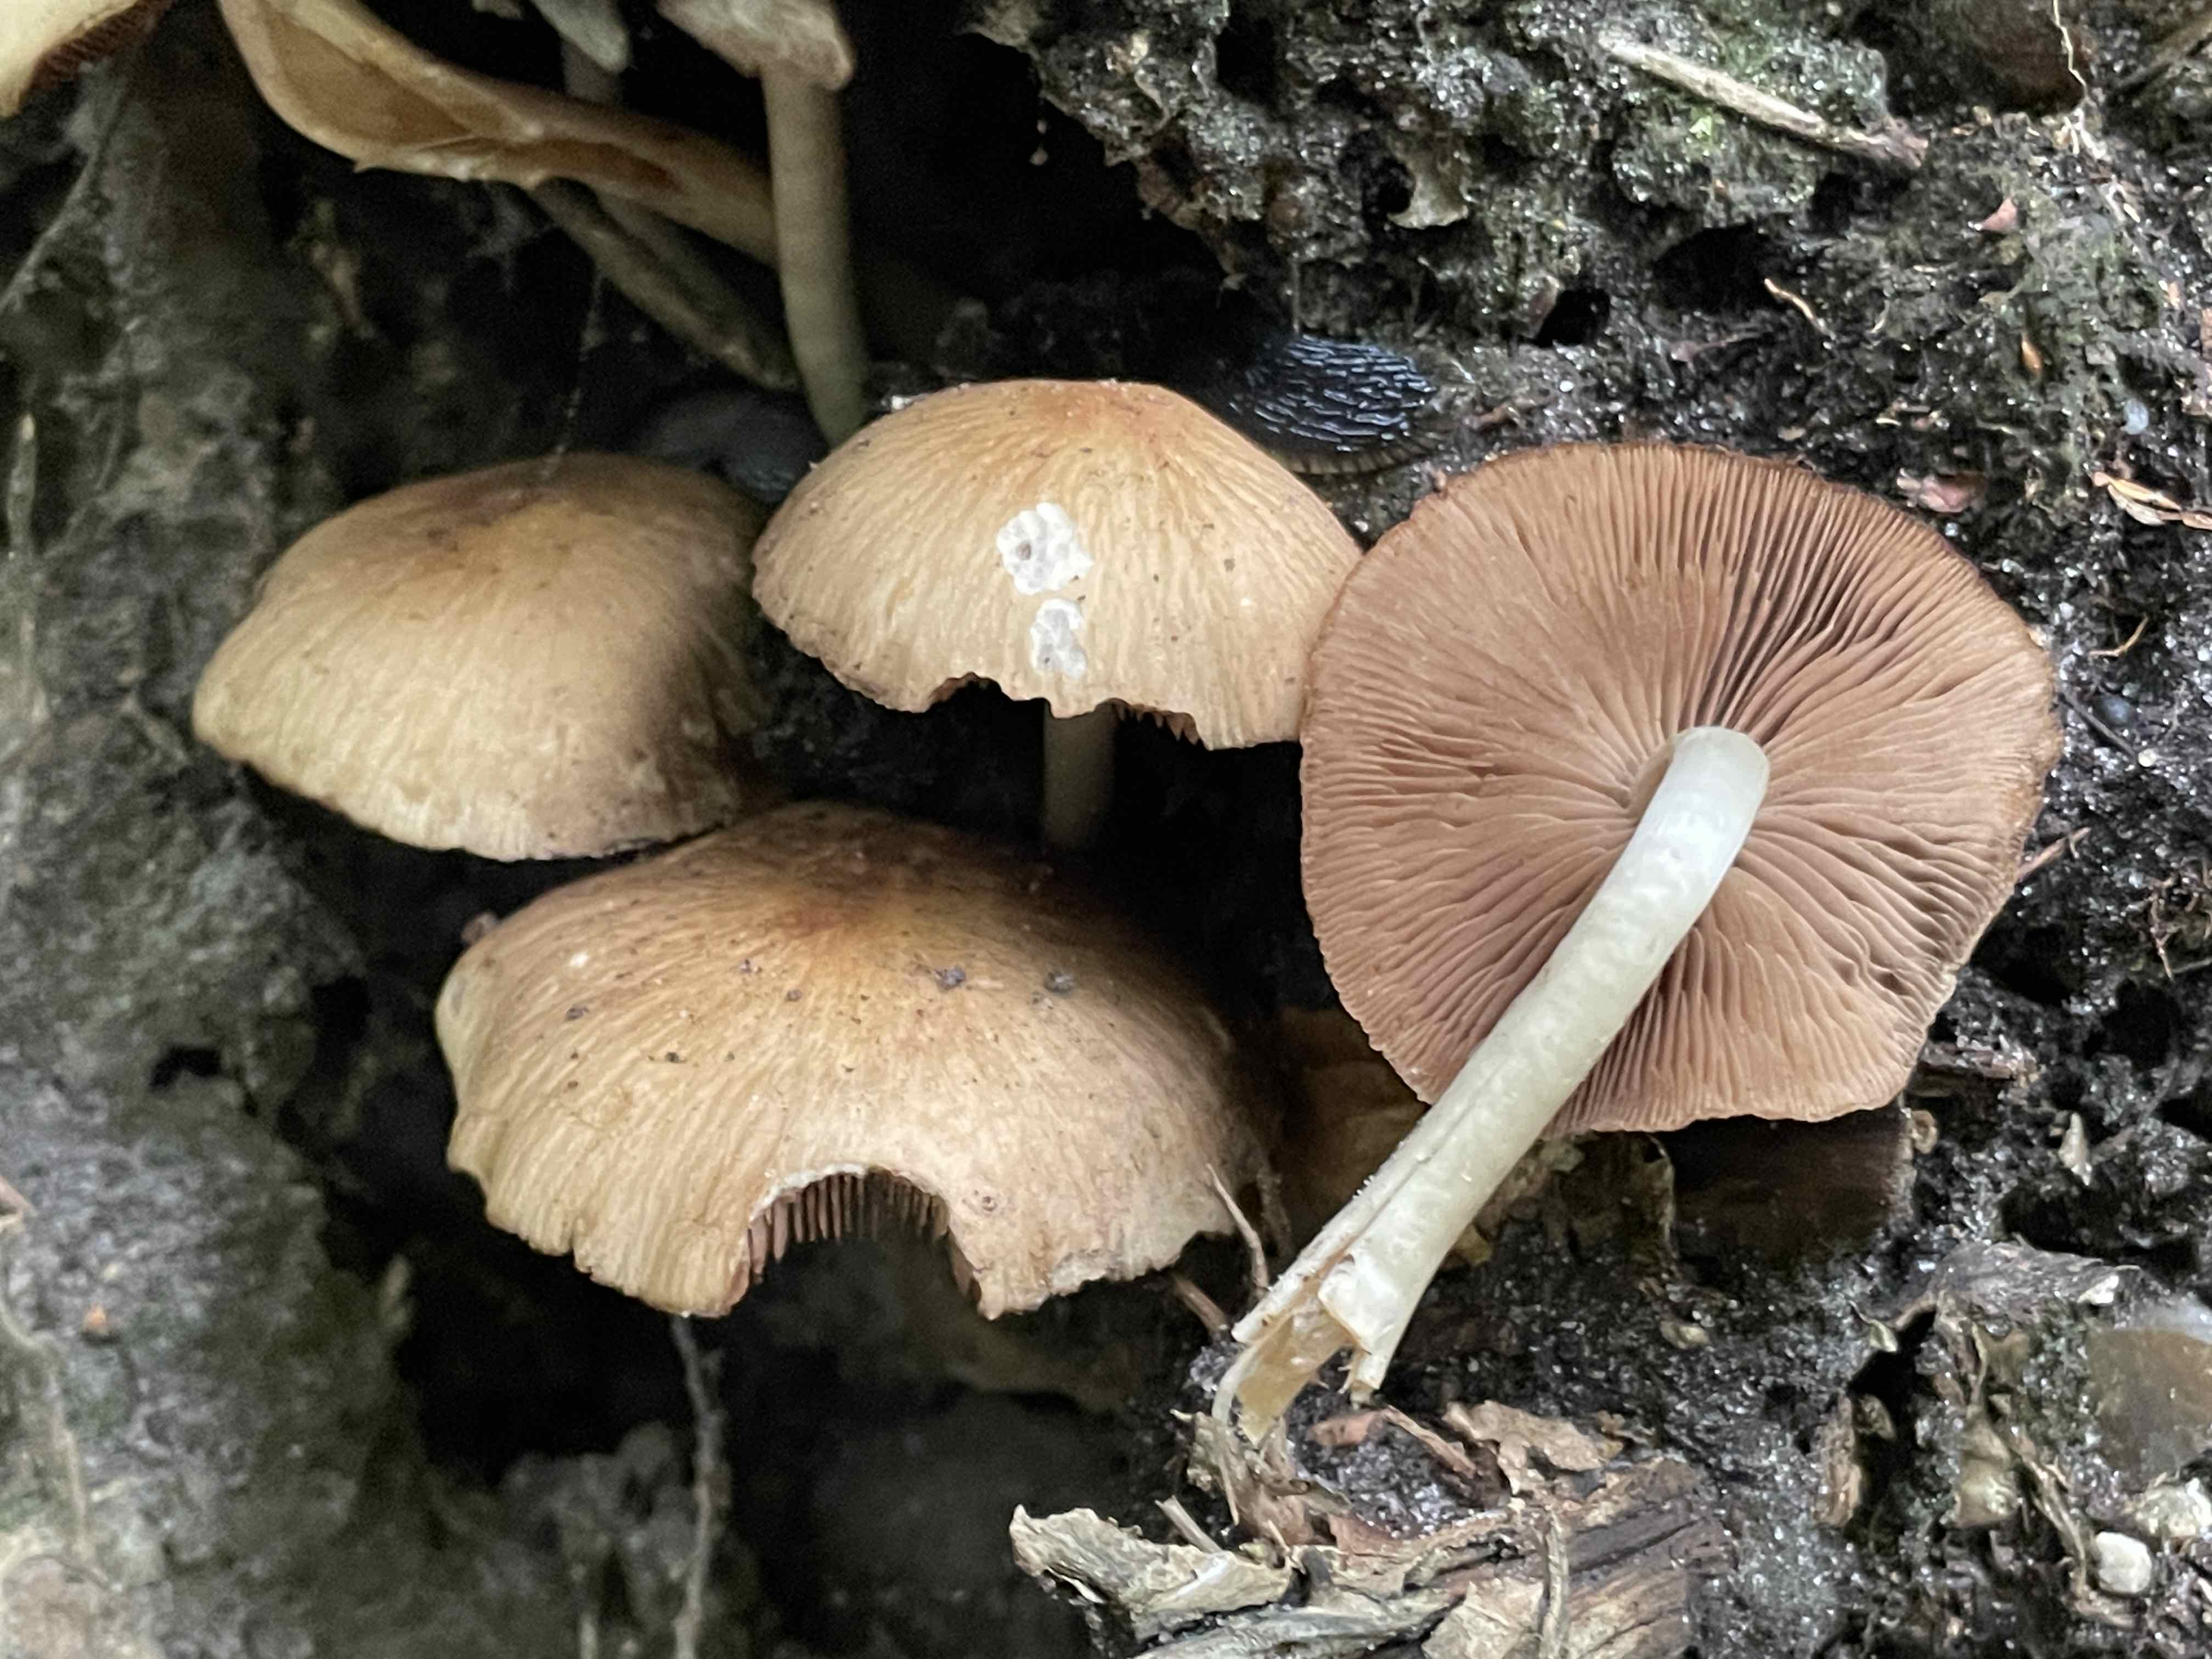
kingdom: Fungi
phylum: Basidiomycota
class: Agaricomycetes
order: Agaricales
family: Psathyrellaceae
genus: Psathyrella
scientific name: Psathyrella piluliformis
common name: lysstokket mørkhat
